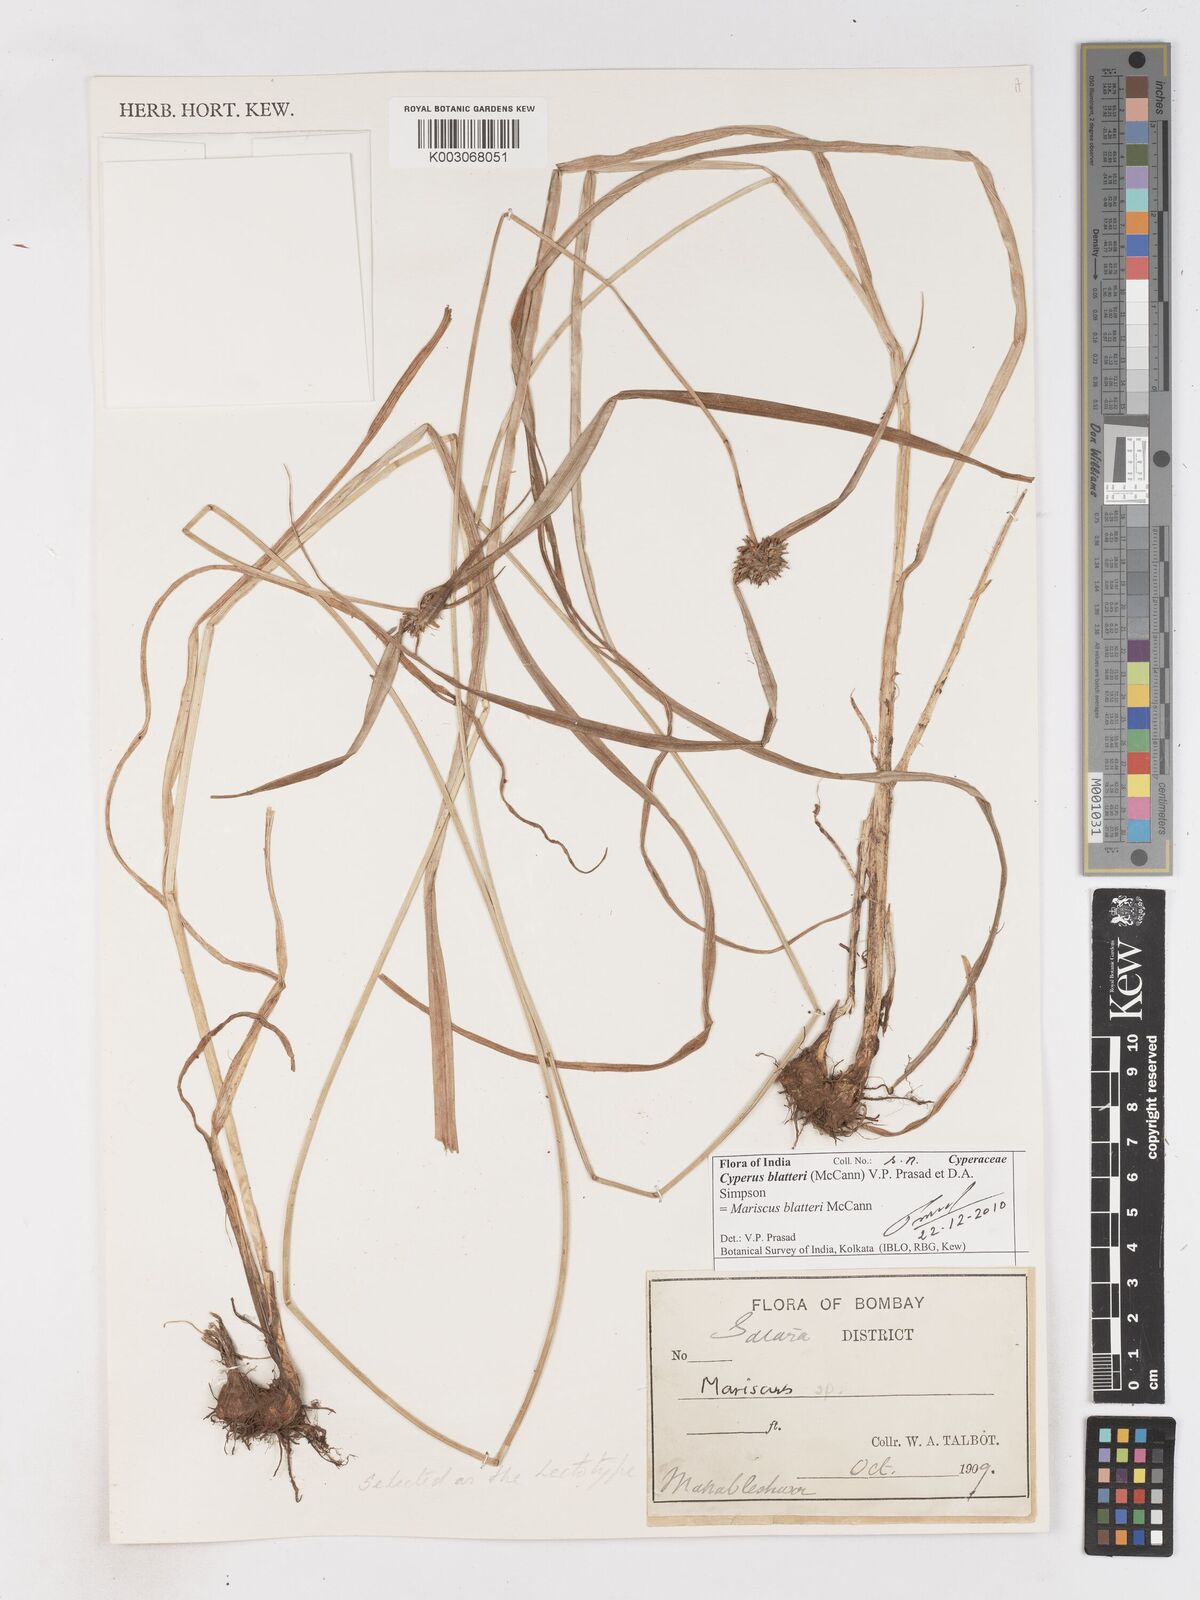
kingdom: Plantae
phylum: Tracheophyta
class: Liliopsida
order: Poales
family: Cyperaceae
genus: Cyperus
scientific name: Cyperus blatteri
